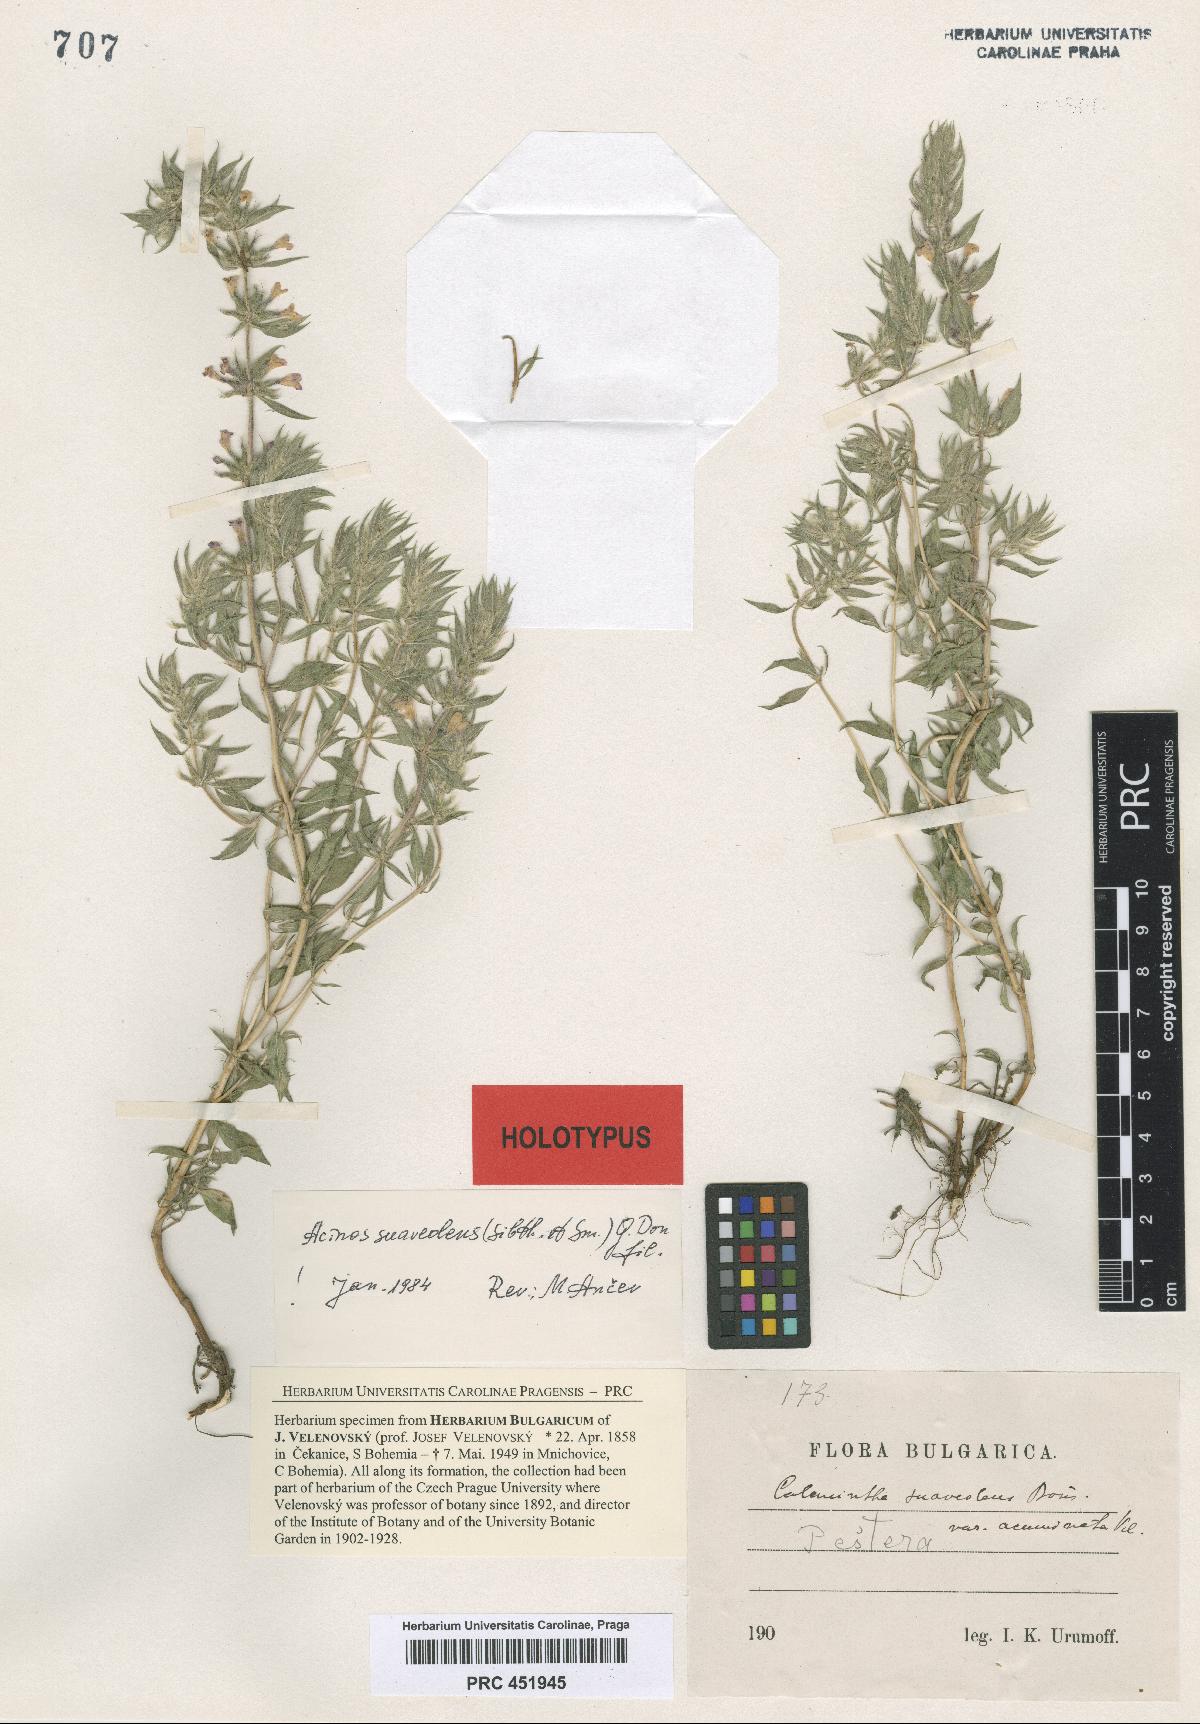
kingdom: Plantae
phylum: Tracheophyta
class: Magnoliopsida
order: Lamiales
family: Lamiaceae
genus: Clinopodium
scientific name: Clinopodium suaveolens
